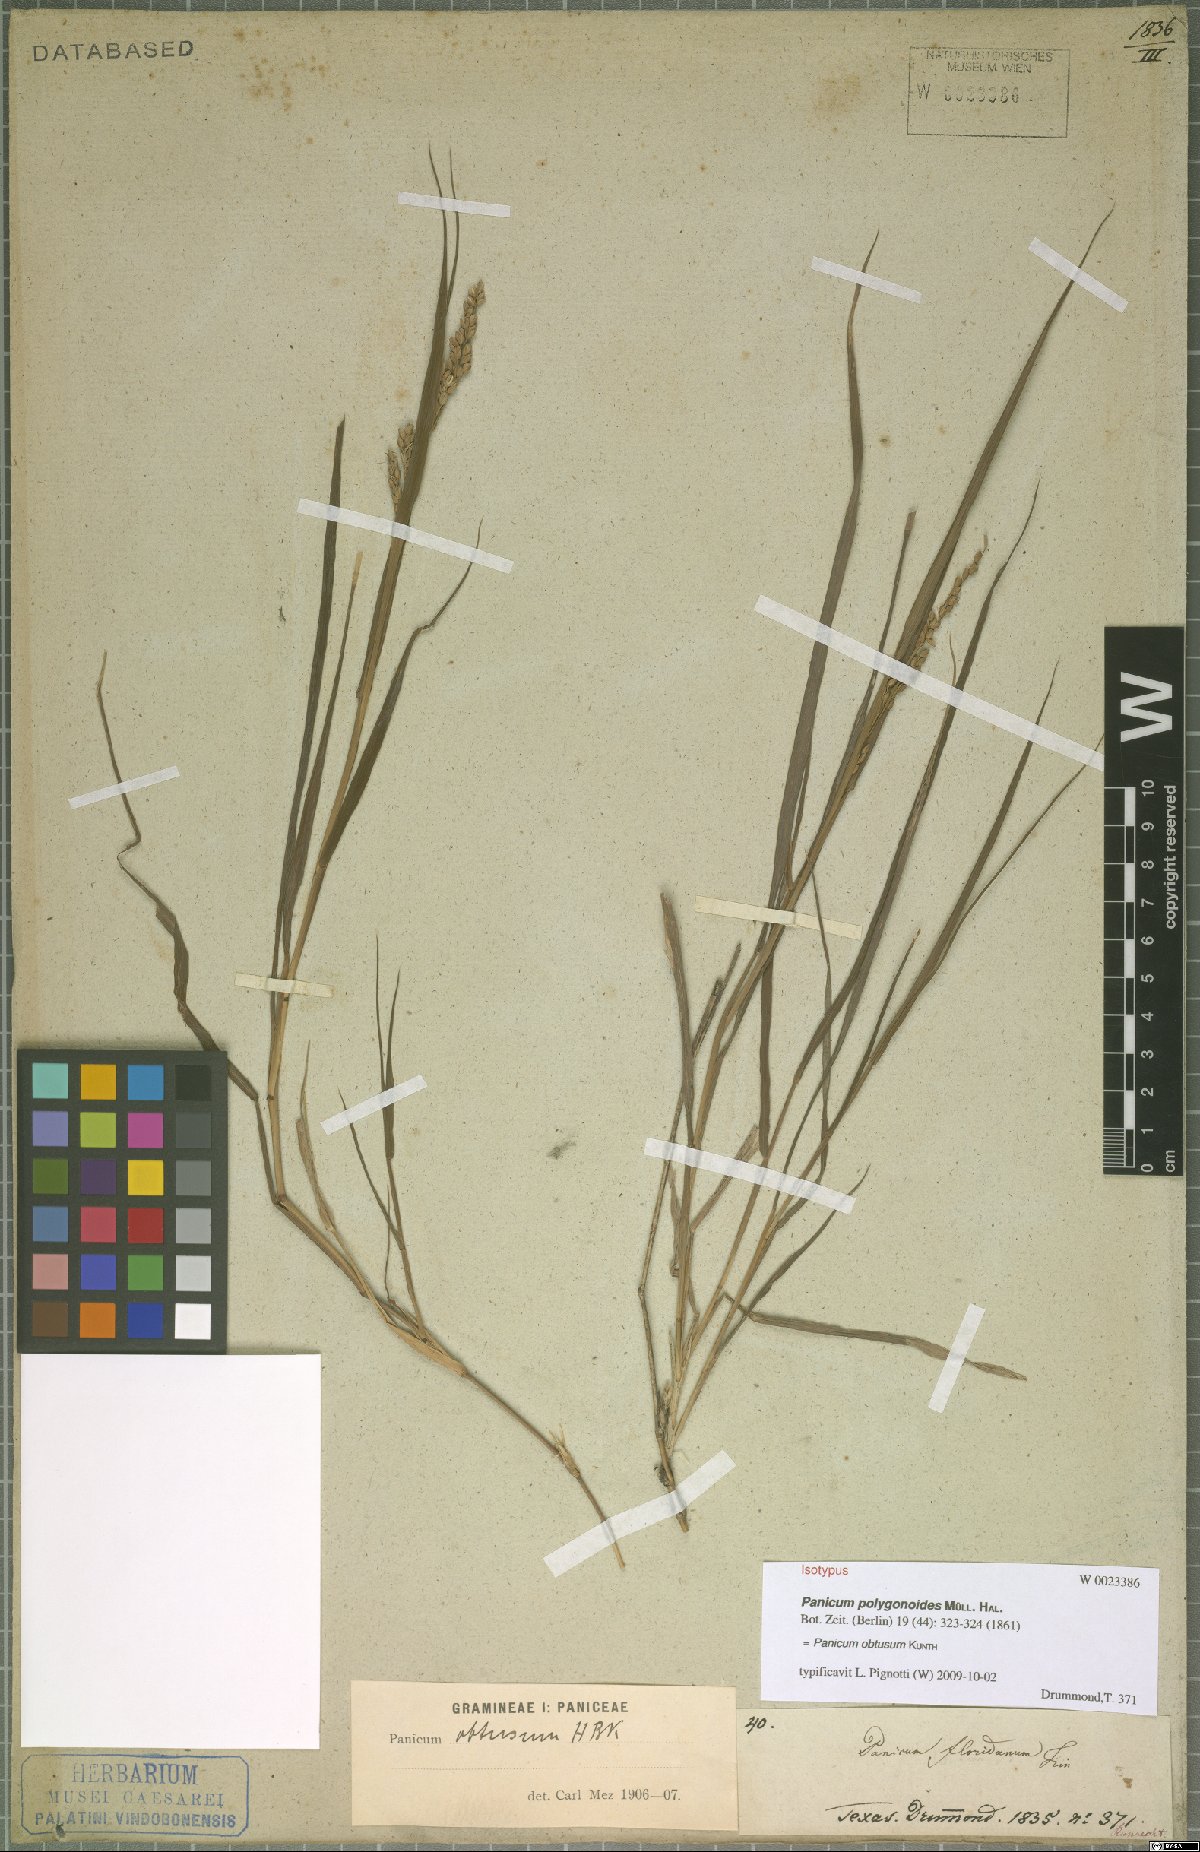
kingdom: Plantae
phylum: Tracheophyta
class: Liliopsida
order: Poales
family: Poaceae
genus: Hopia
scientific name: Hopia obtusa
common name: Vine-mesquite
